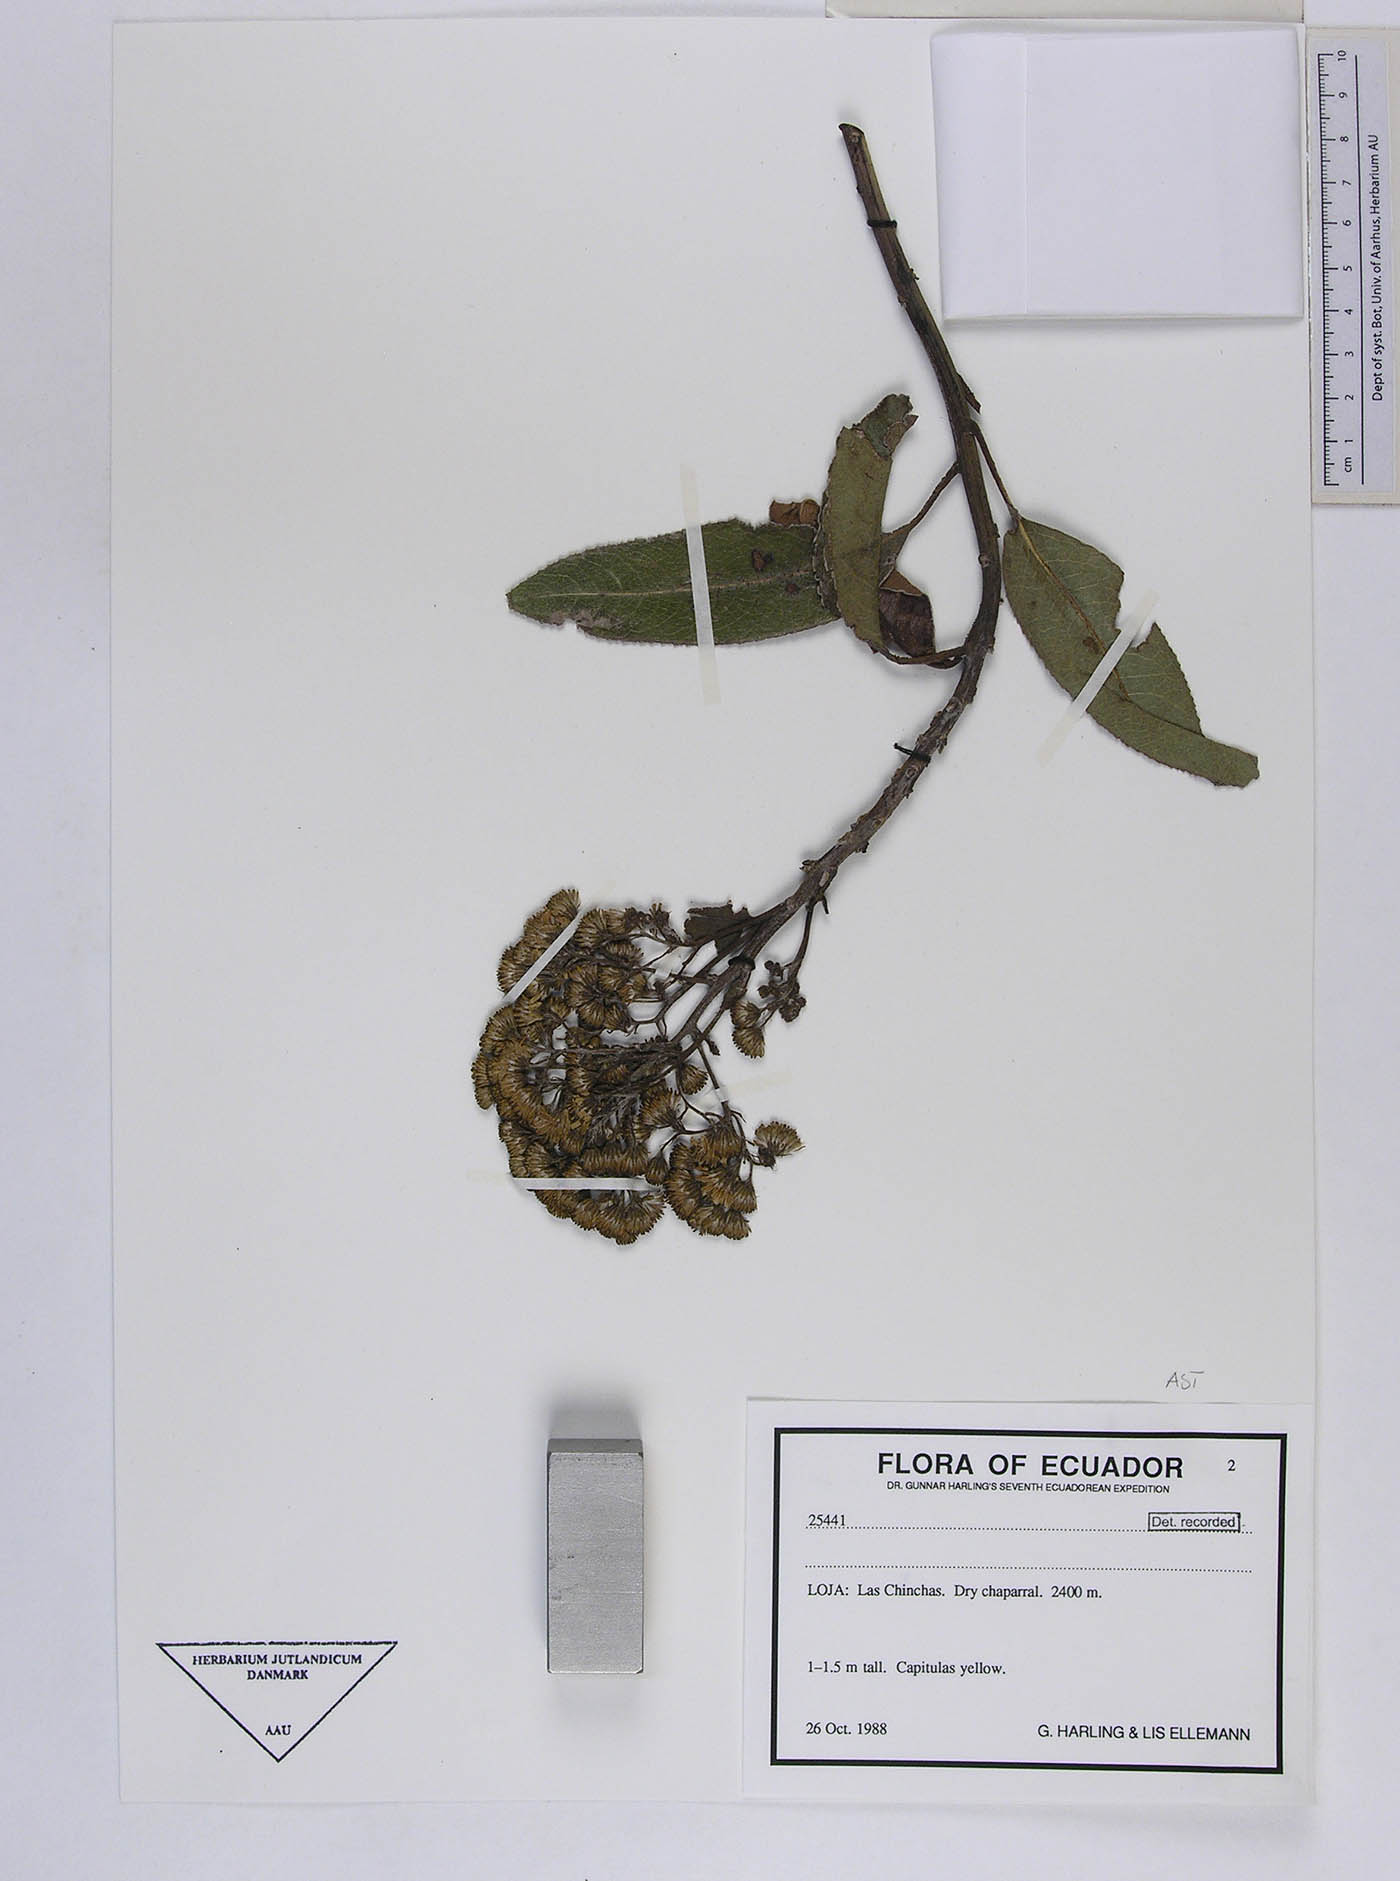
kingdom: Plantae
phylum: Tracheophyta
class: Magnoliopsida
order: Asterales
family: Asteraceae
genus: Dendrophorbium
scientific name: Dendrophorbium pururu
